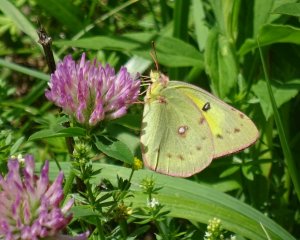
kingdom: Animalia
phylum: Arthropoda
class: Insecta
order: Lepidoptera
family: Pieridae
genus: Colias
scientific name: Colias eurytheme
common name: Orange Sulphur
